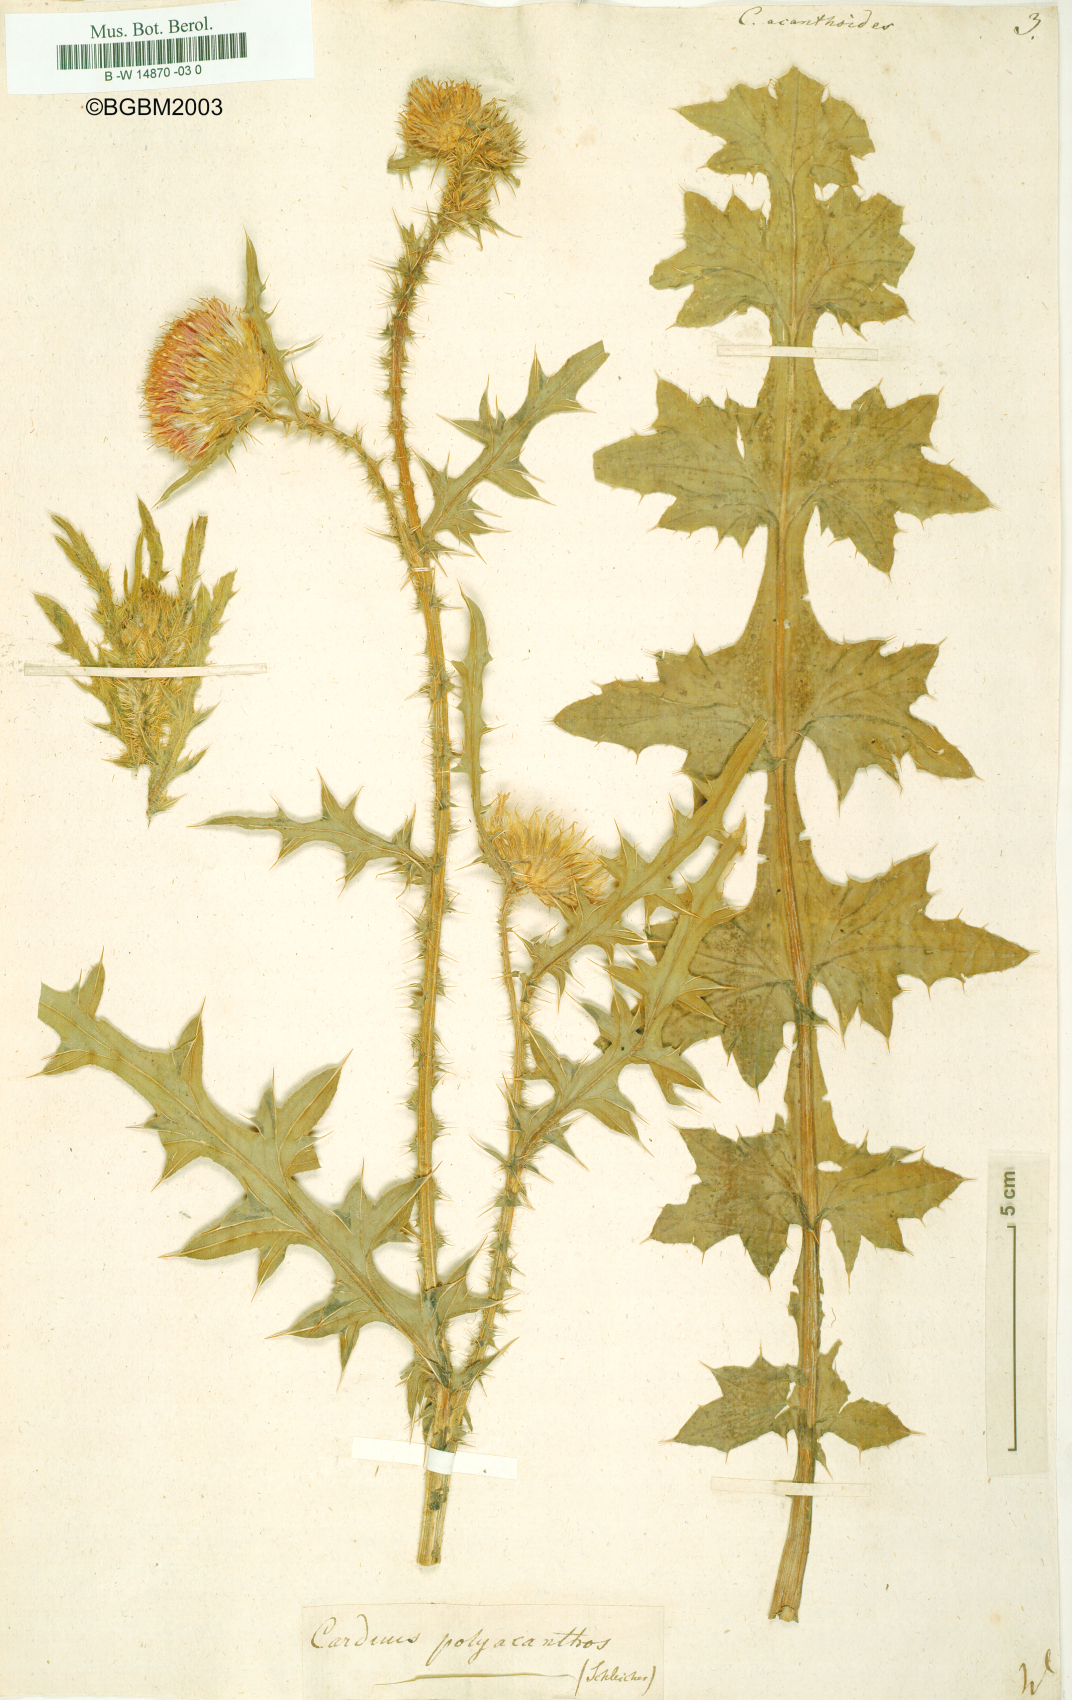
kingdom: Plantae
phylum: Tracheophyta
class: Magnoliopsida
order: Asterales
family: Asteraceae
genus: Carduus
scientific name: Carduus acanthoides
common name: Plumeless thistle
